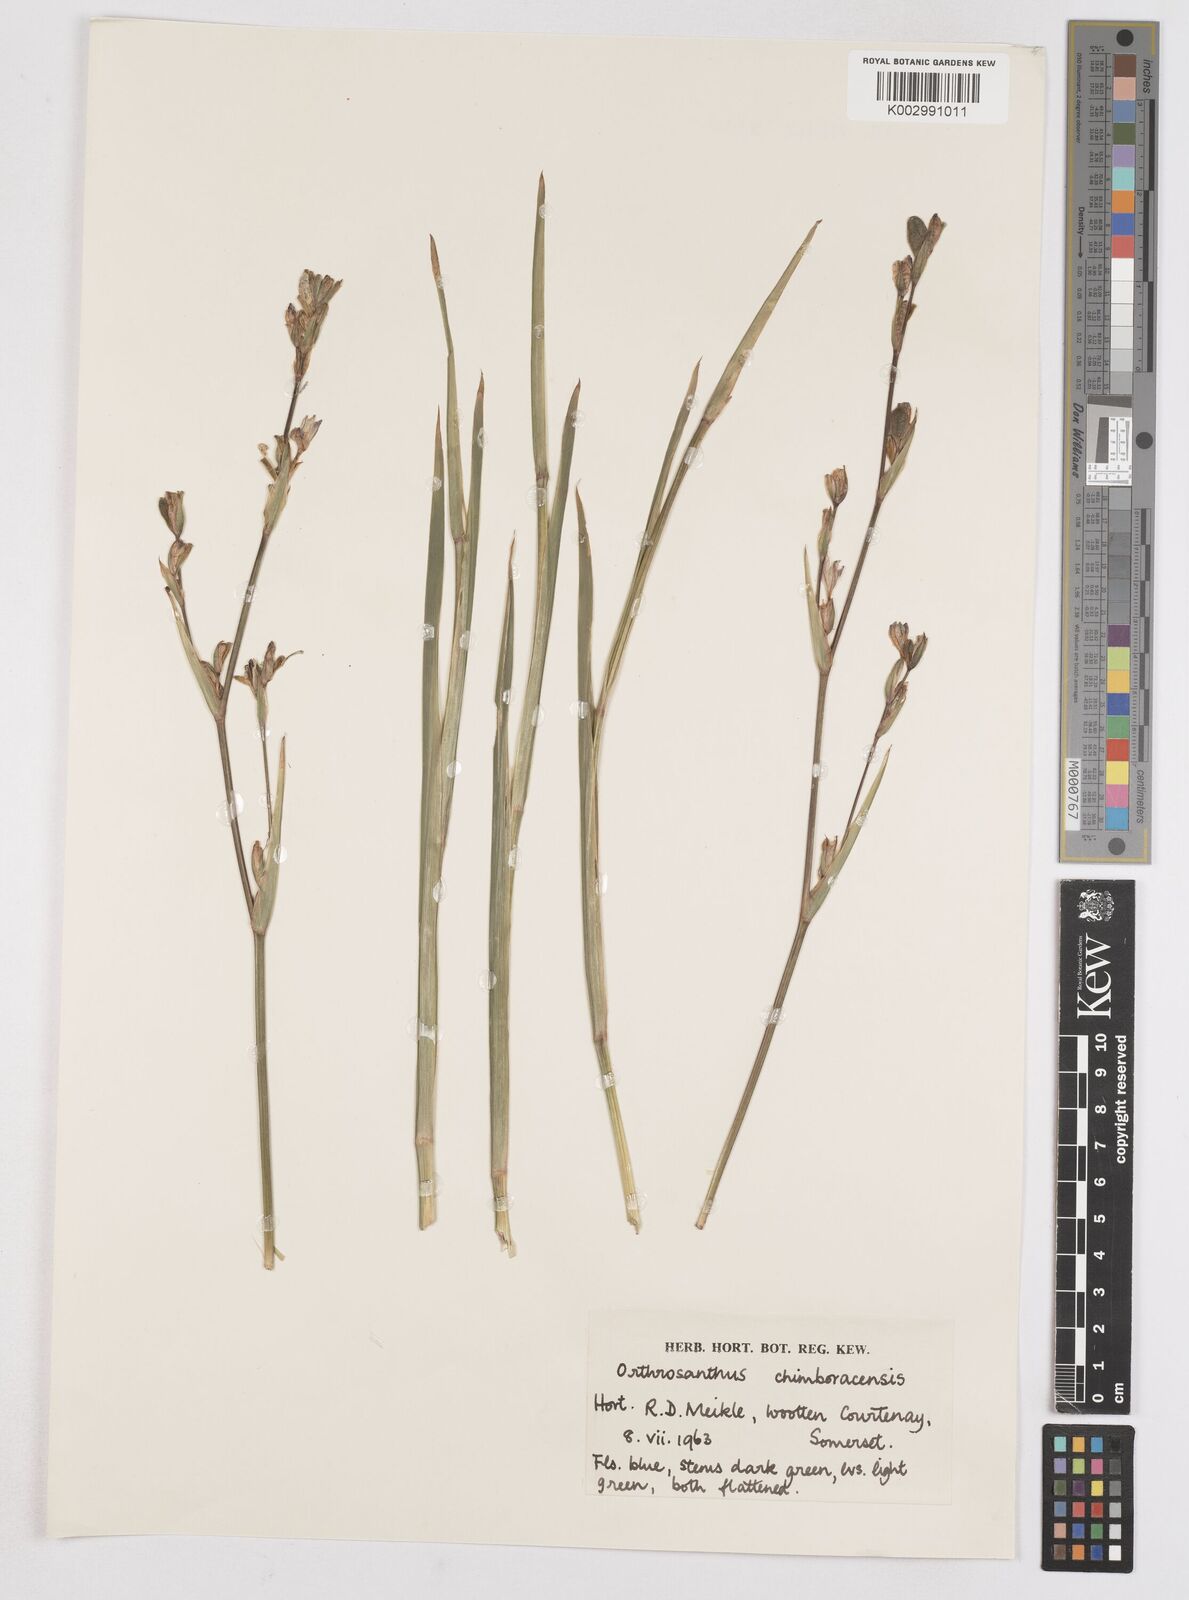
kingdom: Plantae
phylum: Tracheophyta
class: Liliopsida
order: Asparagales
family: Iridaceae
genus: Orthrosanthus
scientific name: Orthrosanthus chimboracensis
